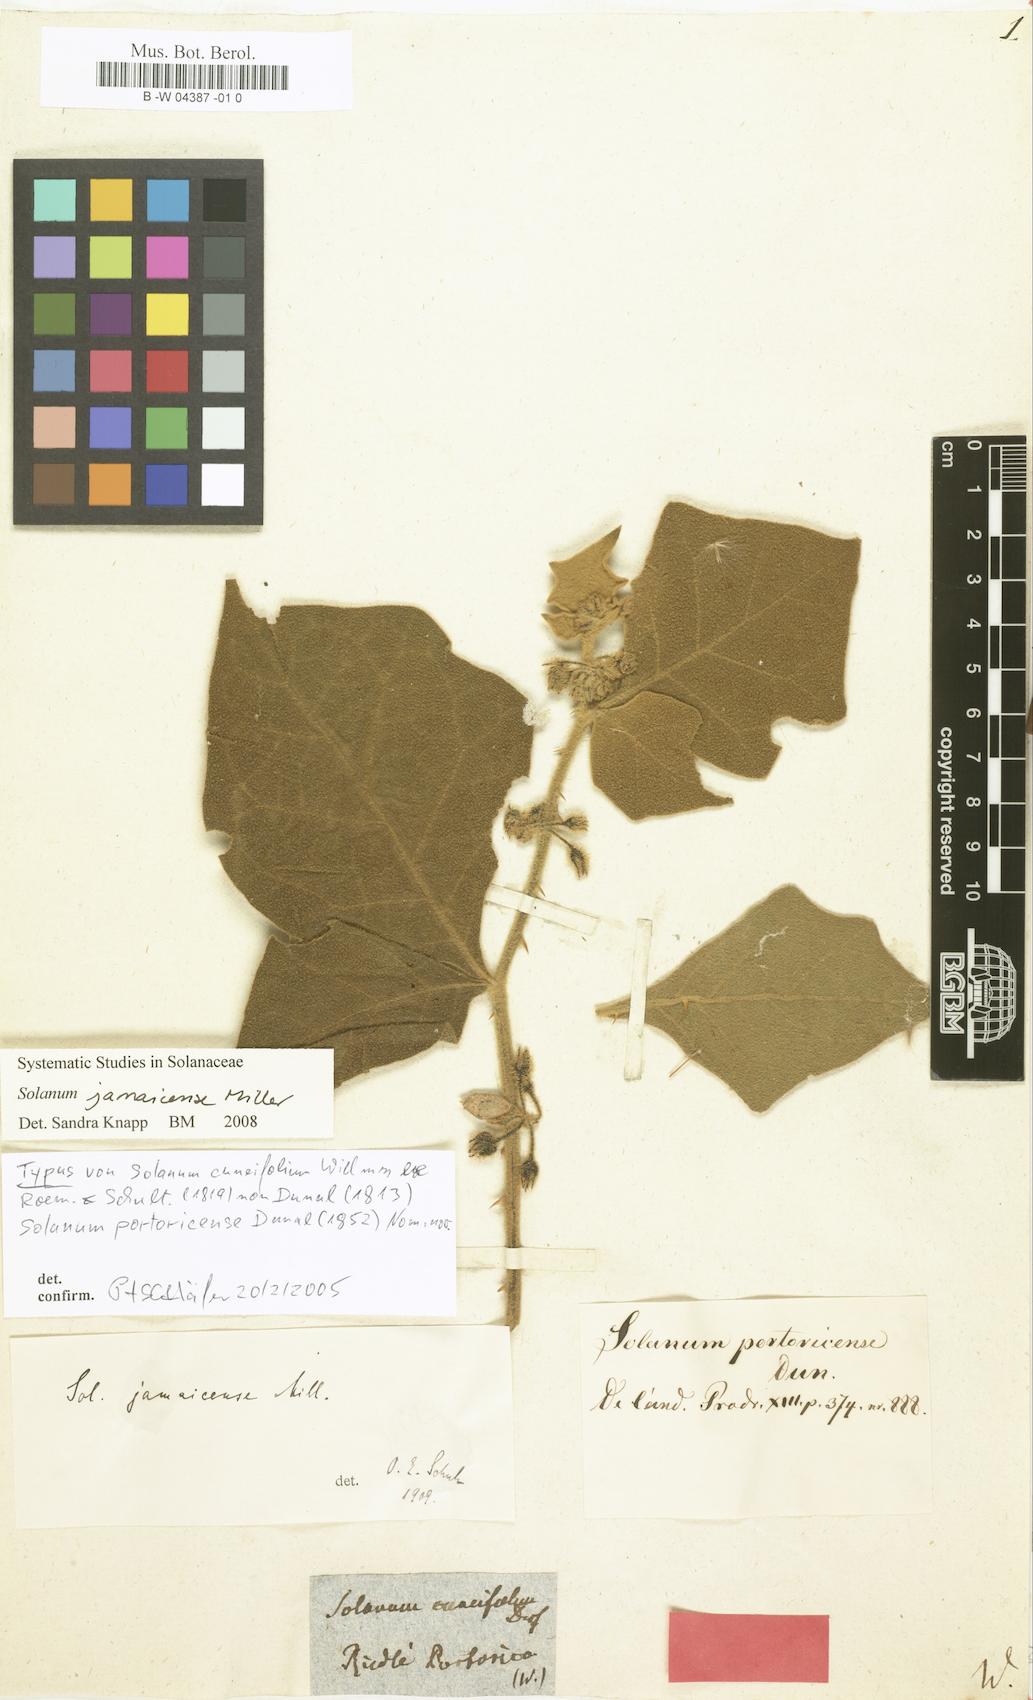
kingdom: Plantae
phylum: Tracheophyta
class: Magnoliopsida
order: Solanales
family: Solanaceae
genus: Solanum
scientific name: Solanum
